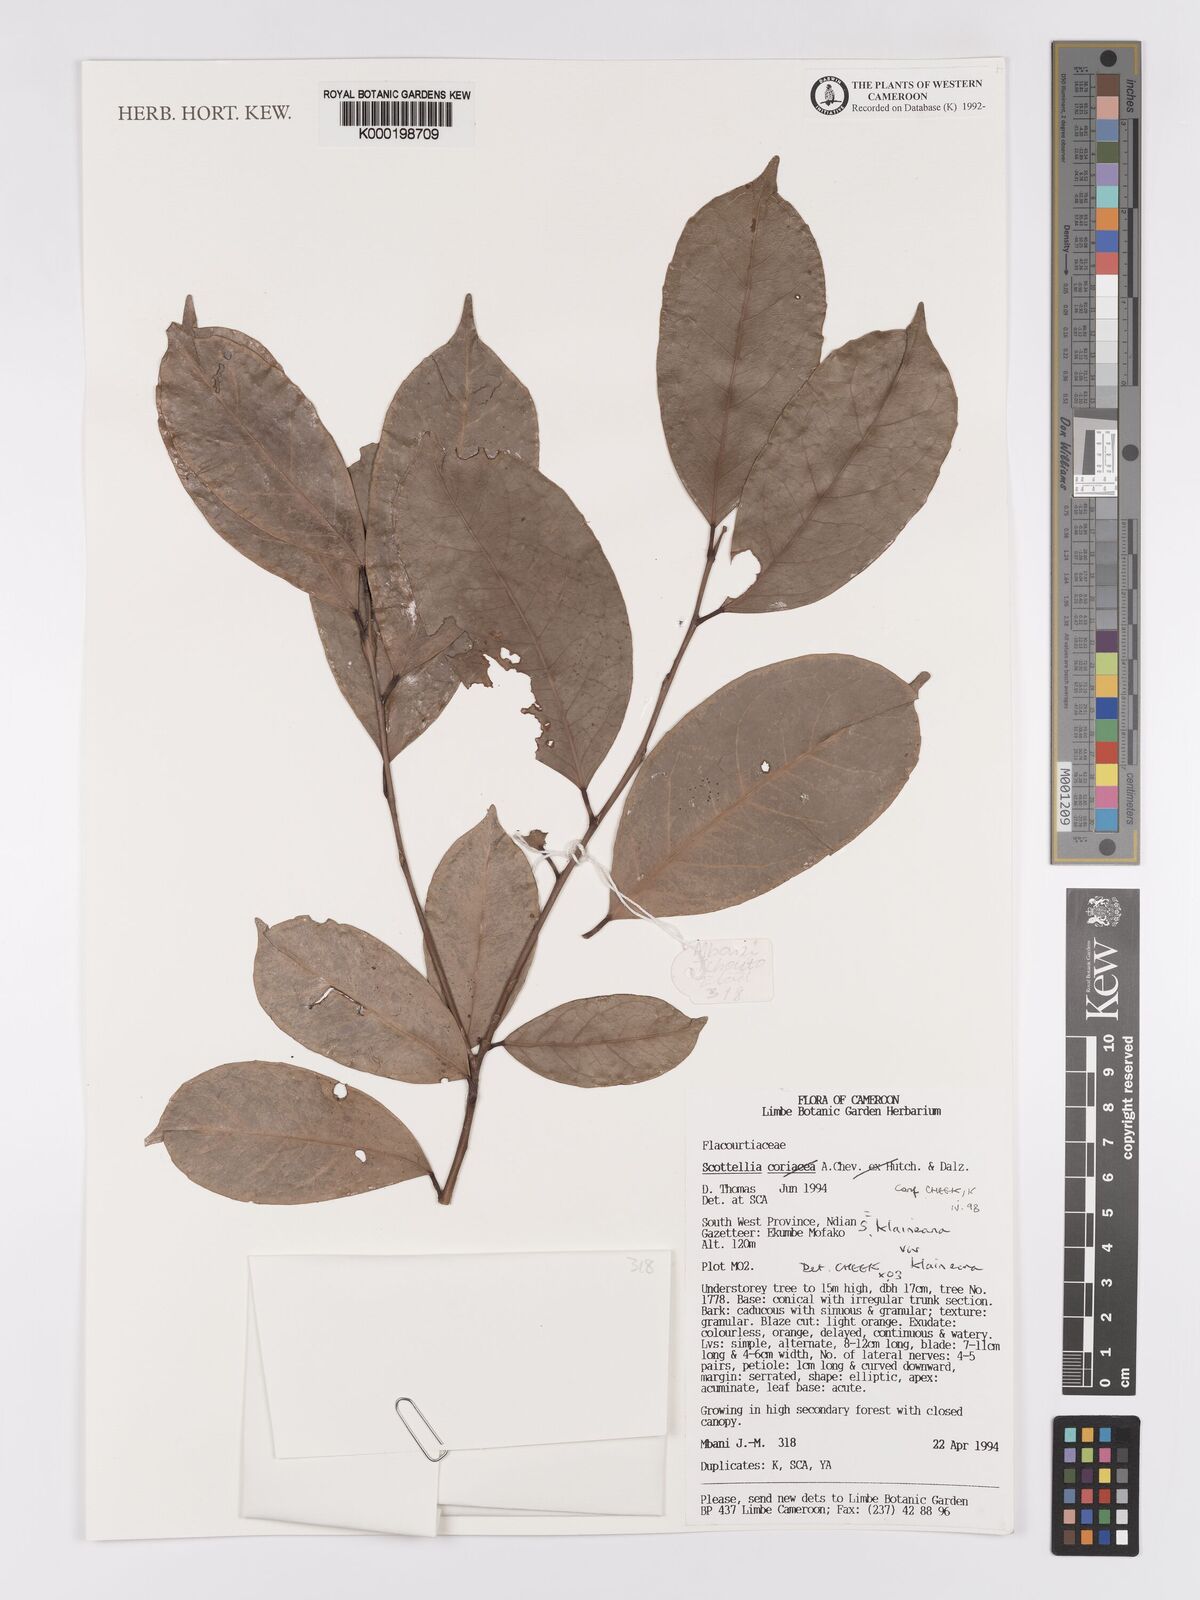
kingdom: Plantae
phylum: Tracheophyta
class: Magnoliopsida
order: Malpighiales
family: Achariaceae
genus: Scottellia
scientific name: Scottellia klaineana
